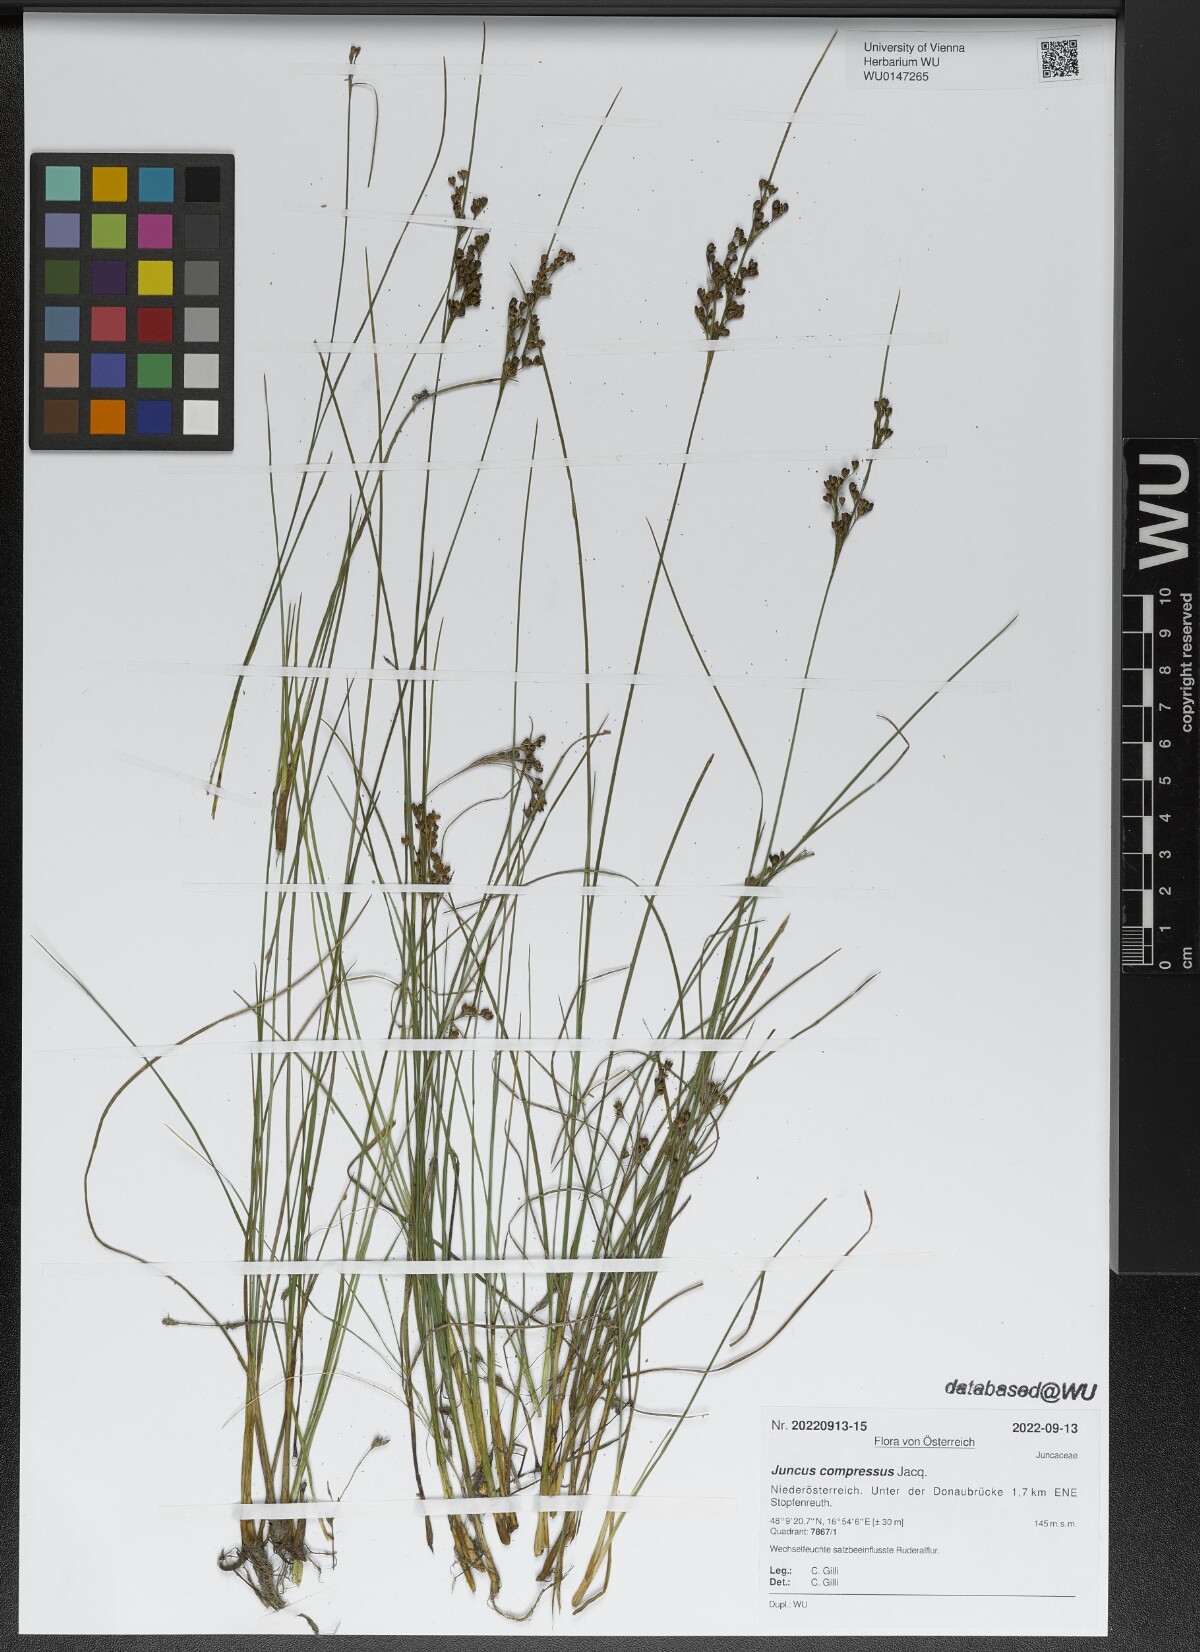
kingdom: Plantae
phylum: Tracheophyta
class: Liliopsida
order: Poales
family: Juncaceae
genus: Juncus
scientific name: Juncus compressus
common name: Round-fruited rush
